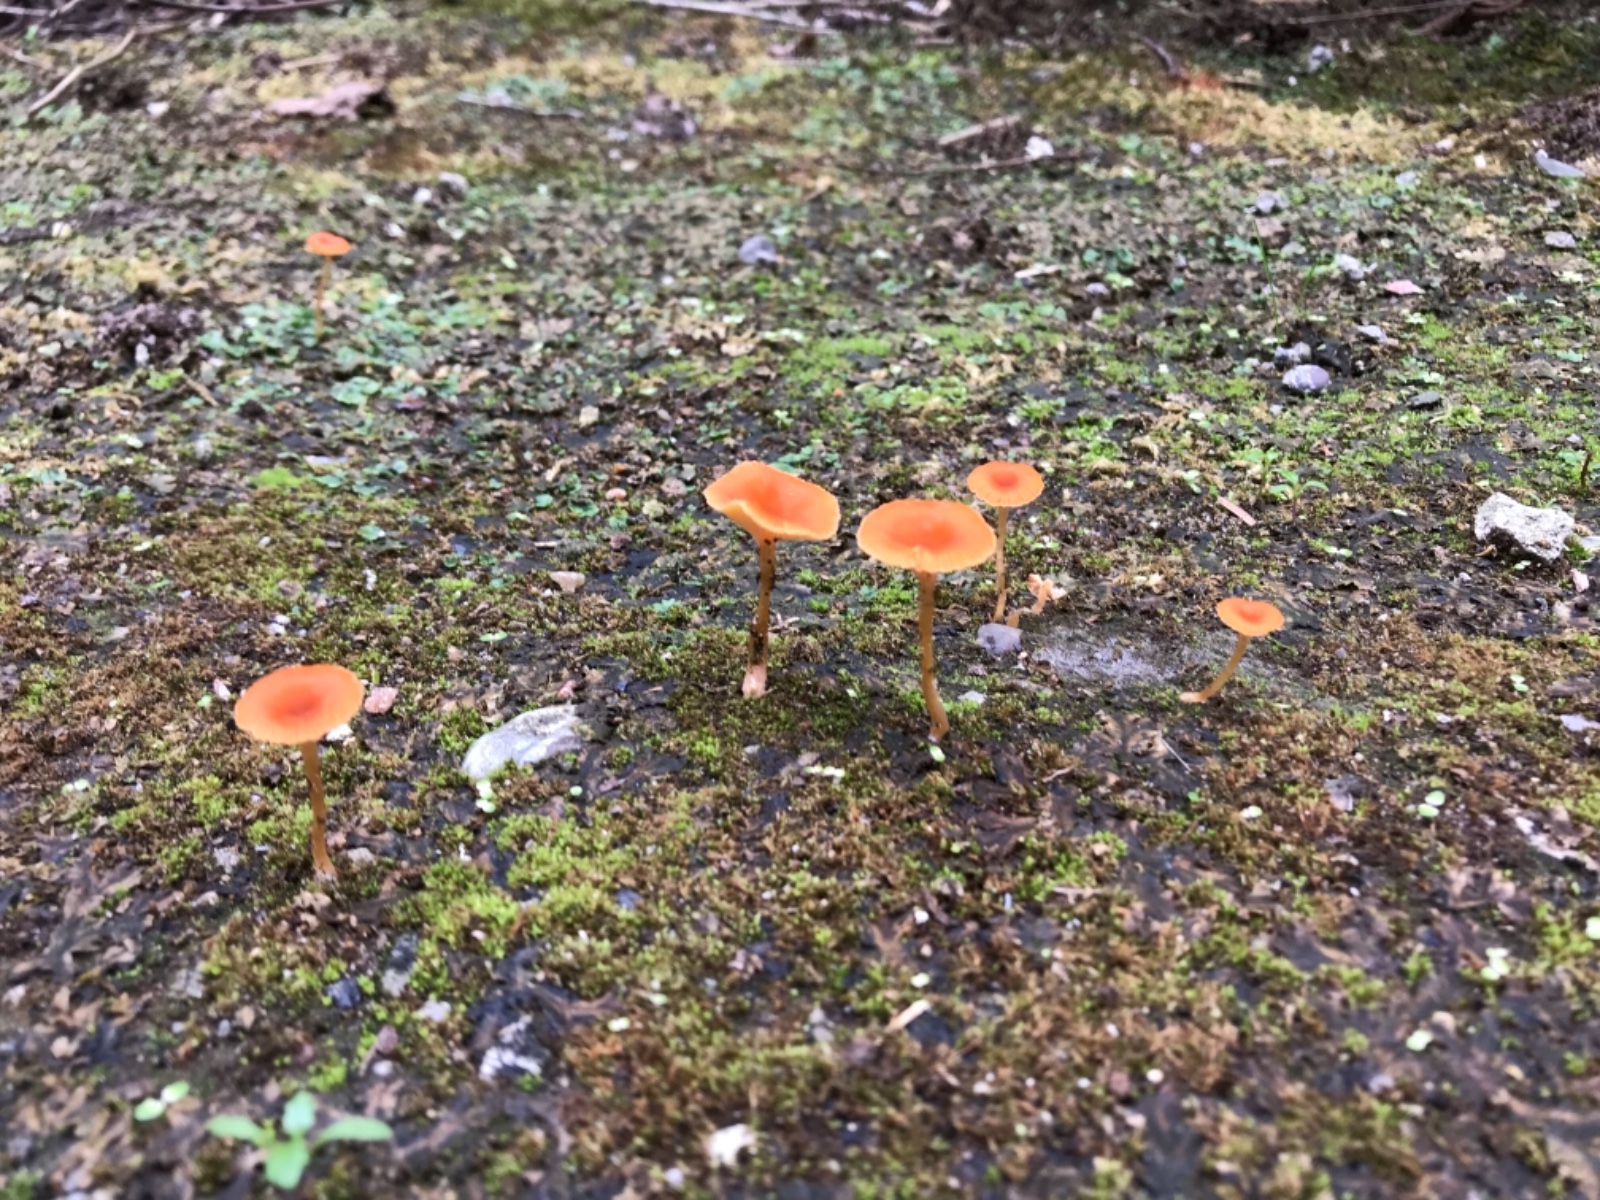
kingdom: Fungi
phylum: Basidiomycota
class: Agaricomycetes
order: Hymenochaetales
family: Rickenellaceae
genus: Loreleia
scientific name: Loreleia postii
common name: brandplet-mosnavlehat
